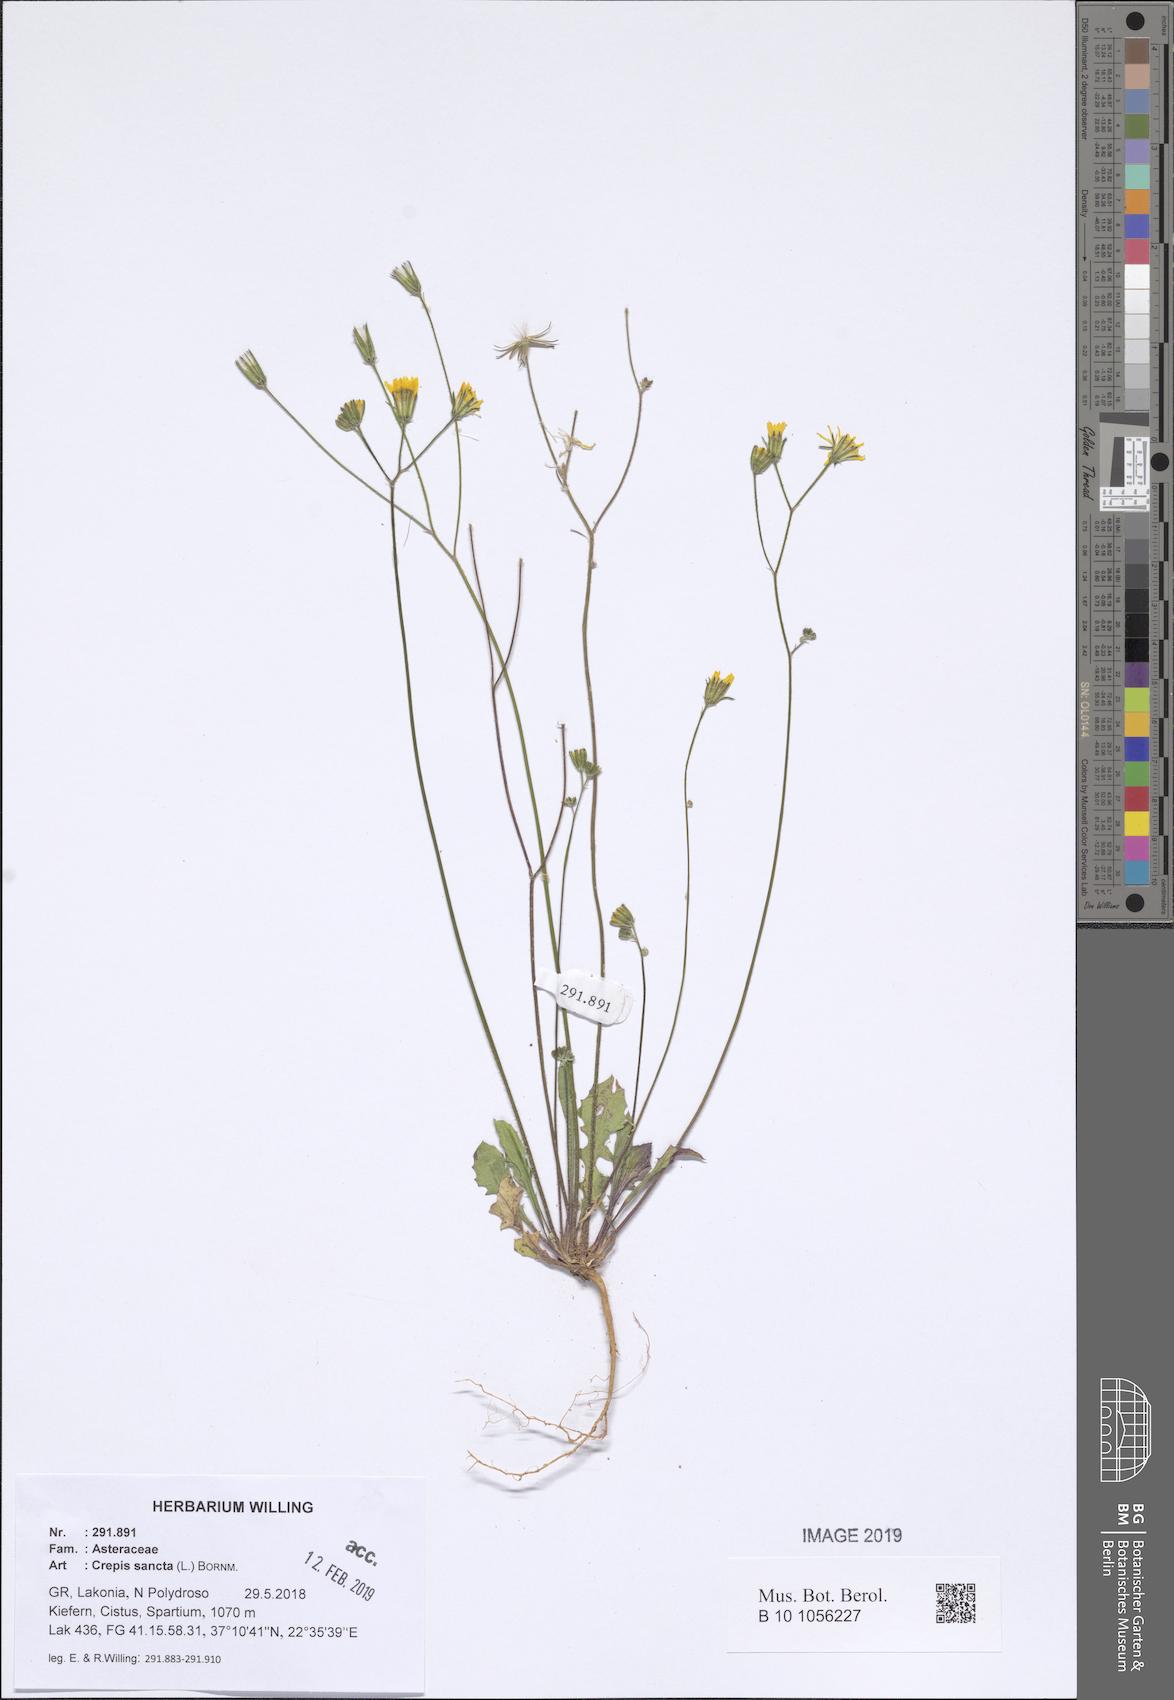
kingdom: Plantae
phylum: Tracheophyta
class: Magnoliopsida
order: Asterales
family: Asteraceae
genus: Crepis
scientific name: Crepis sancta
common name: Hawk's-beard
